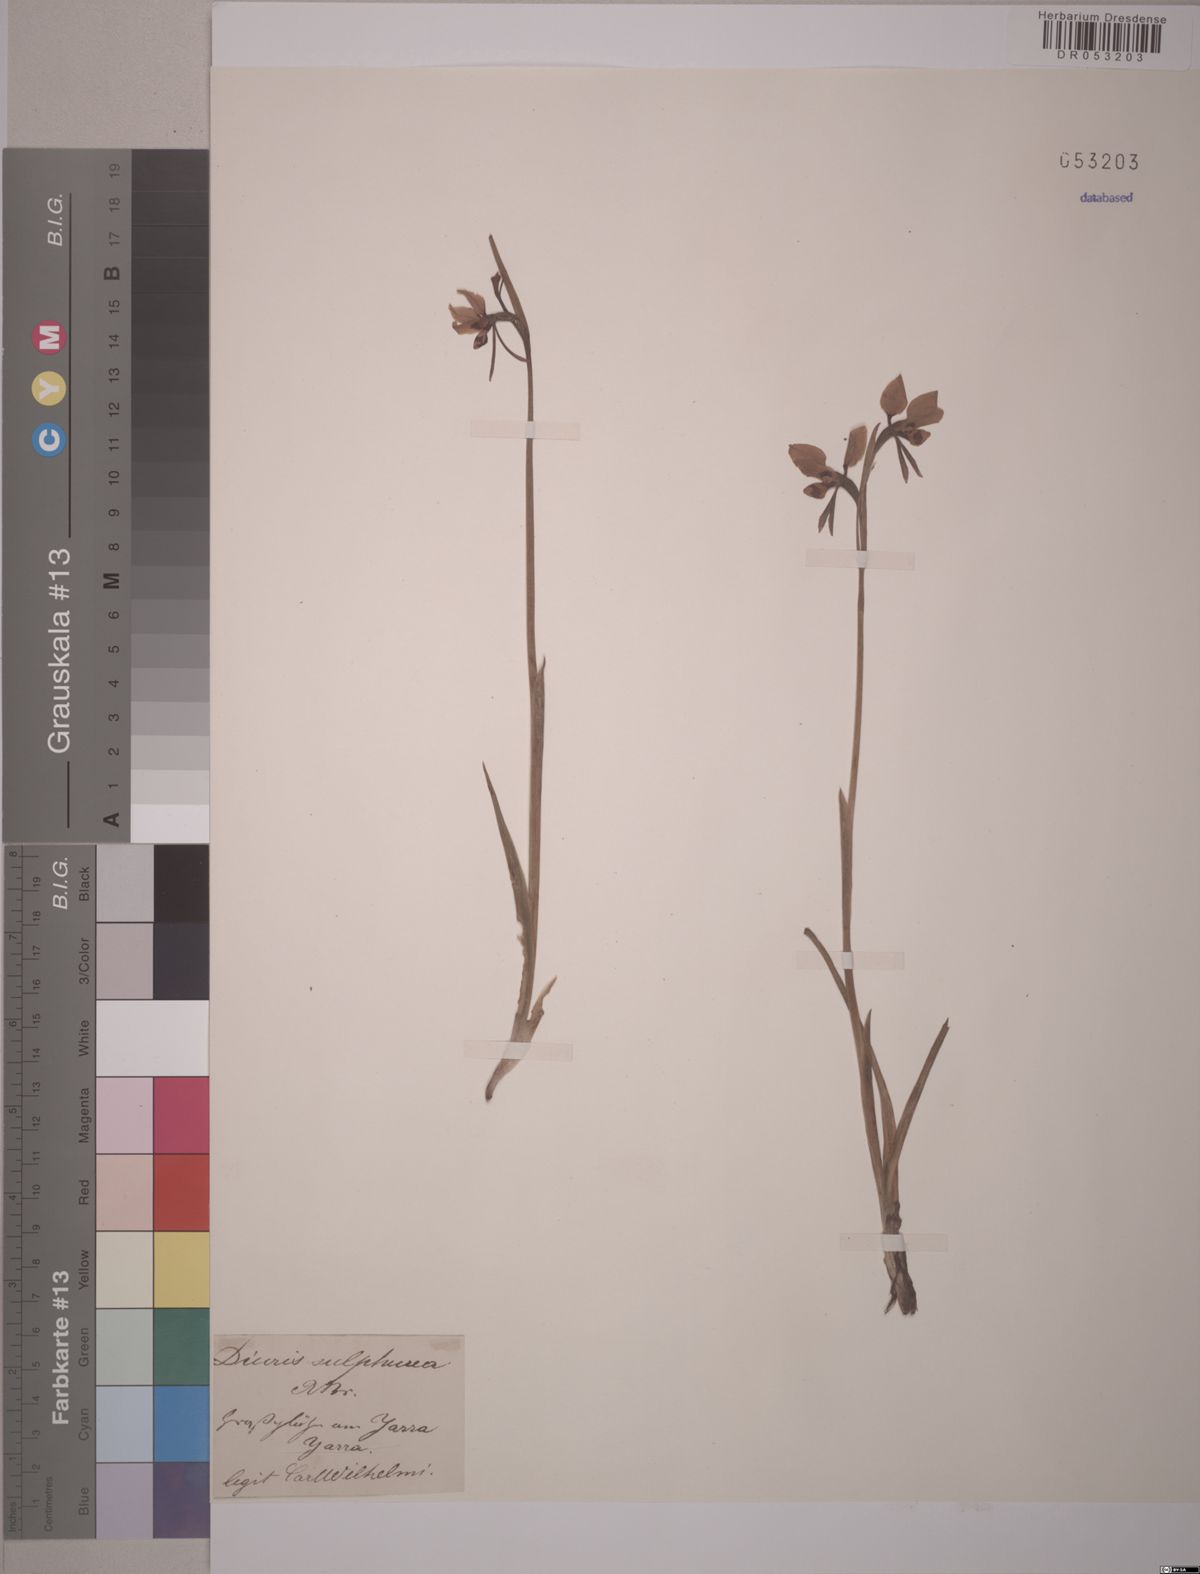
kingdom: Plantae
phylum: Tracheophyta
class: Liliopsida
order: Asparagales
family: Orchidaceae
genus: Diuris
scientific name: Diuris sulphurea
